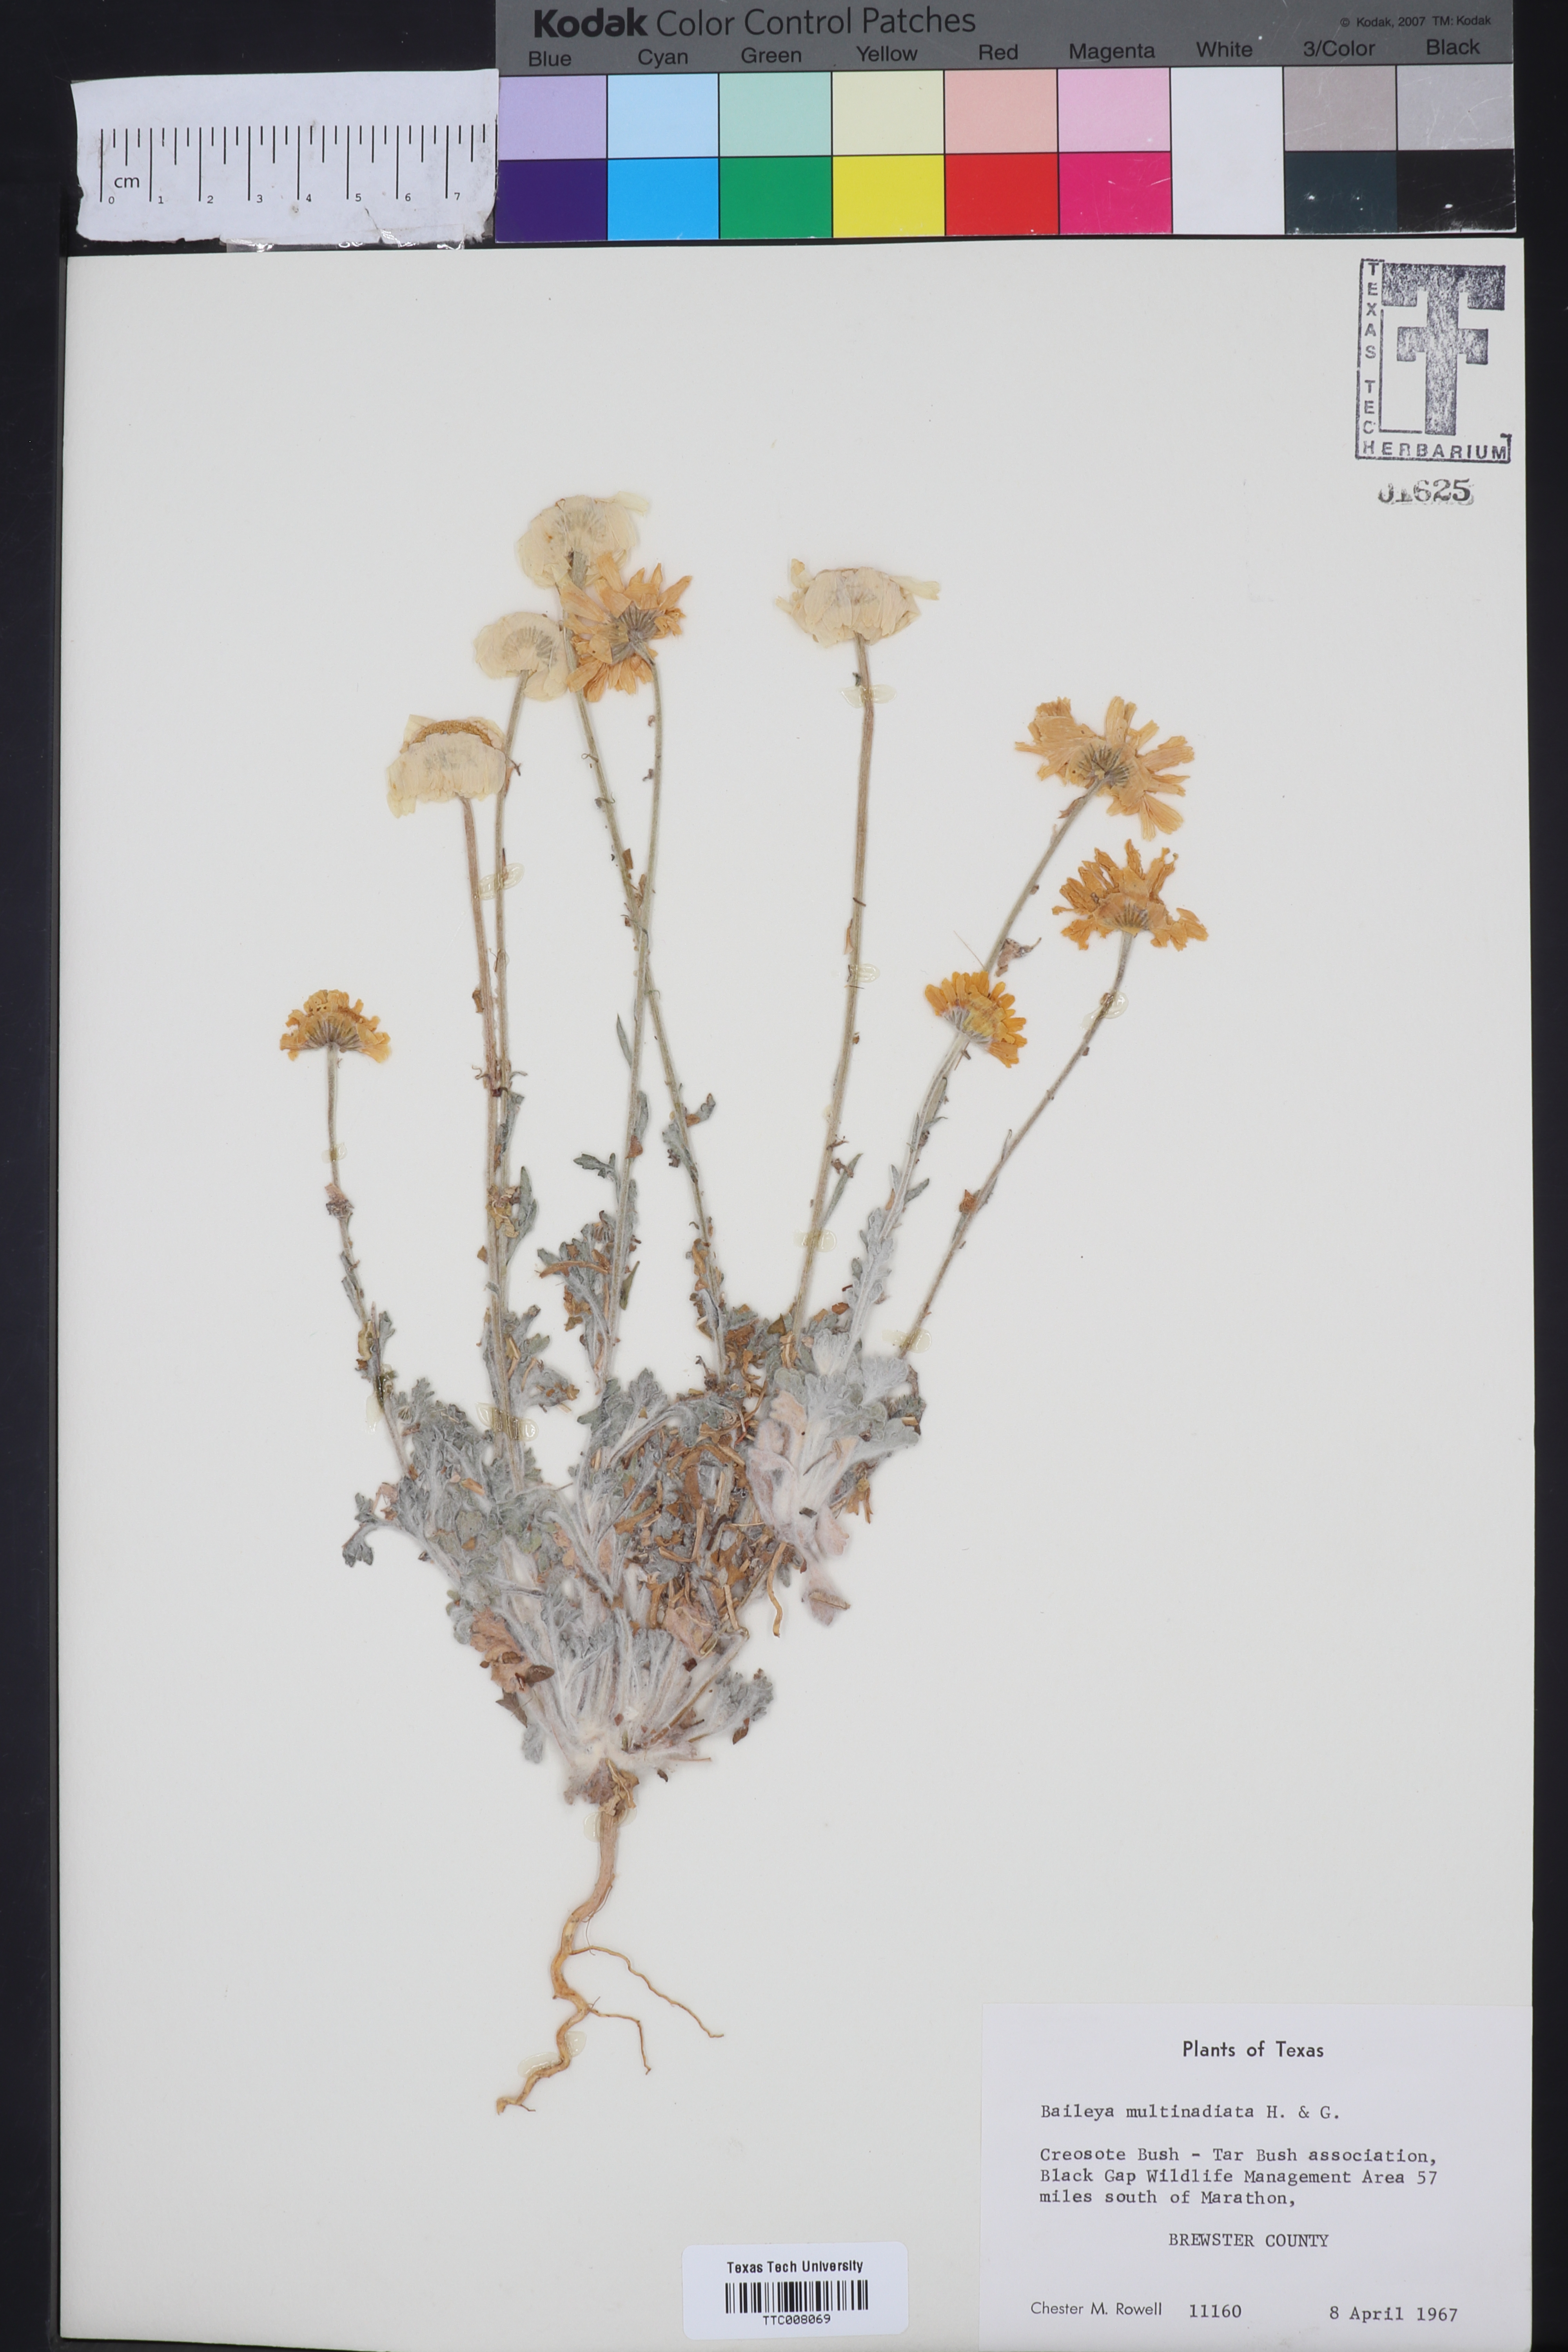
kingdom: Plantae
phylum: Tracheophyta
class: Magnoliopsida
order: Asterales
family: Asteraceae
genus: Baileya
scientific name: Baileya multiradiata
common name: Desert-marigold
